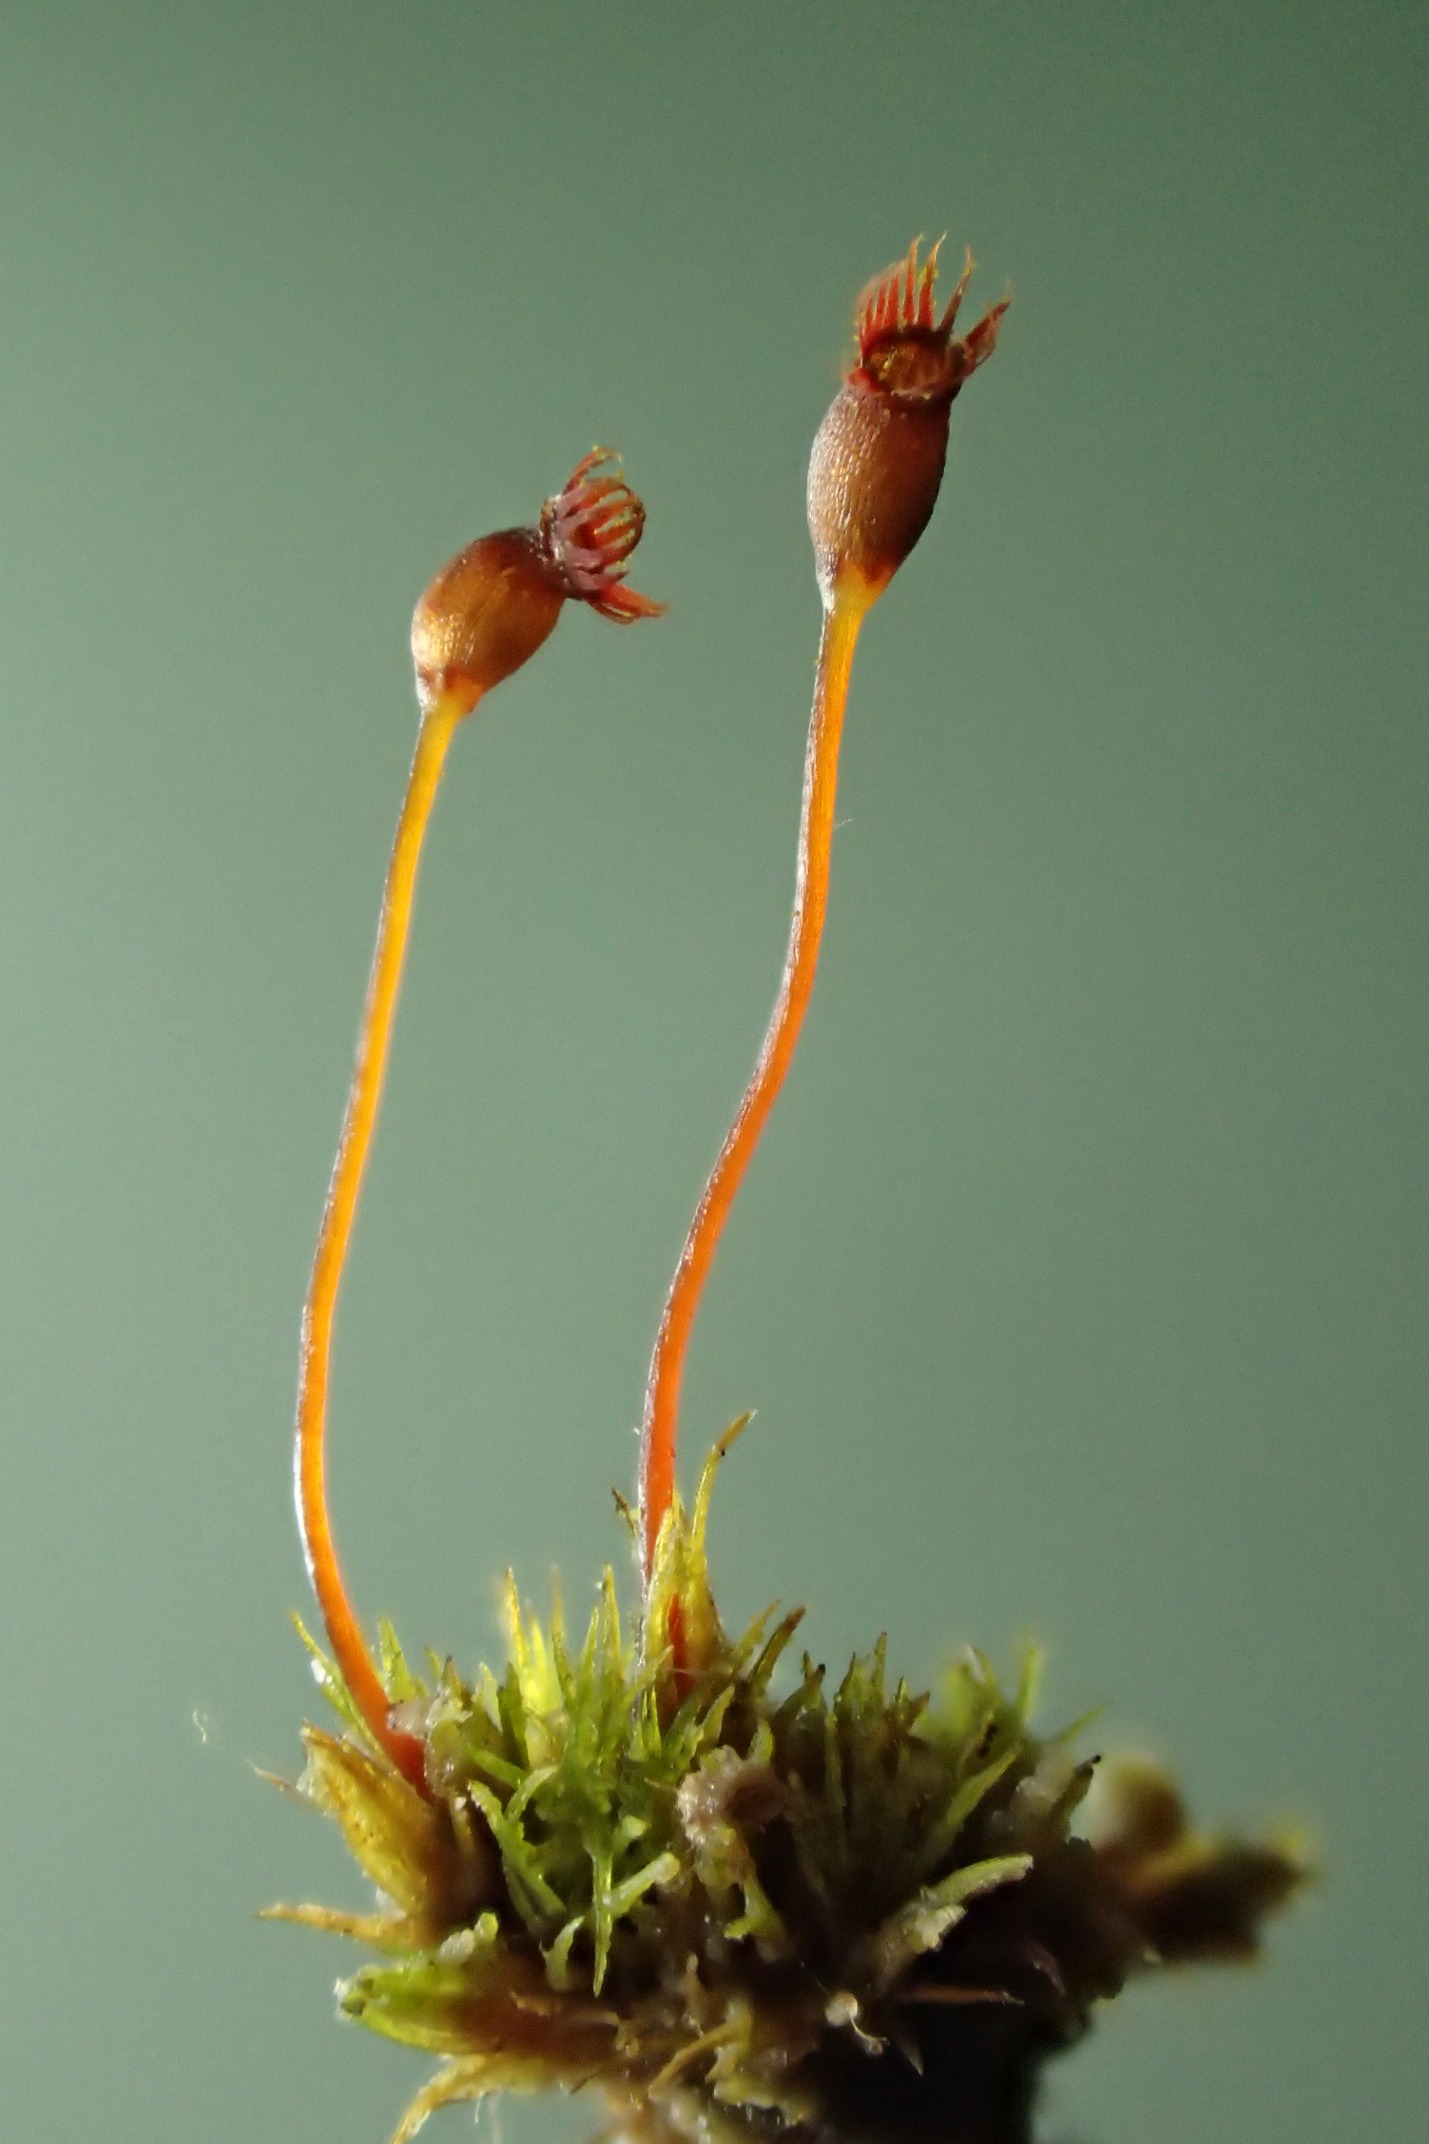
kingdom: Plantae
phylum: Bryophyta
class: Bryopsida
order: Dicranales
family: Dicranellaceae
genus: Dicranella
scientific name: Dicranella varia
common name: Stivbladet skævkapsel
